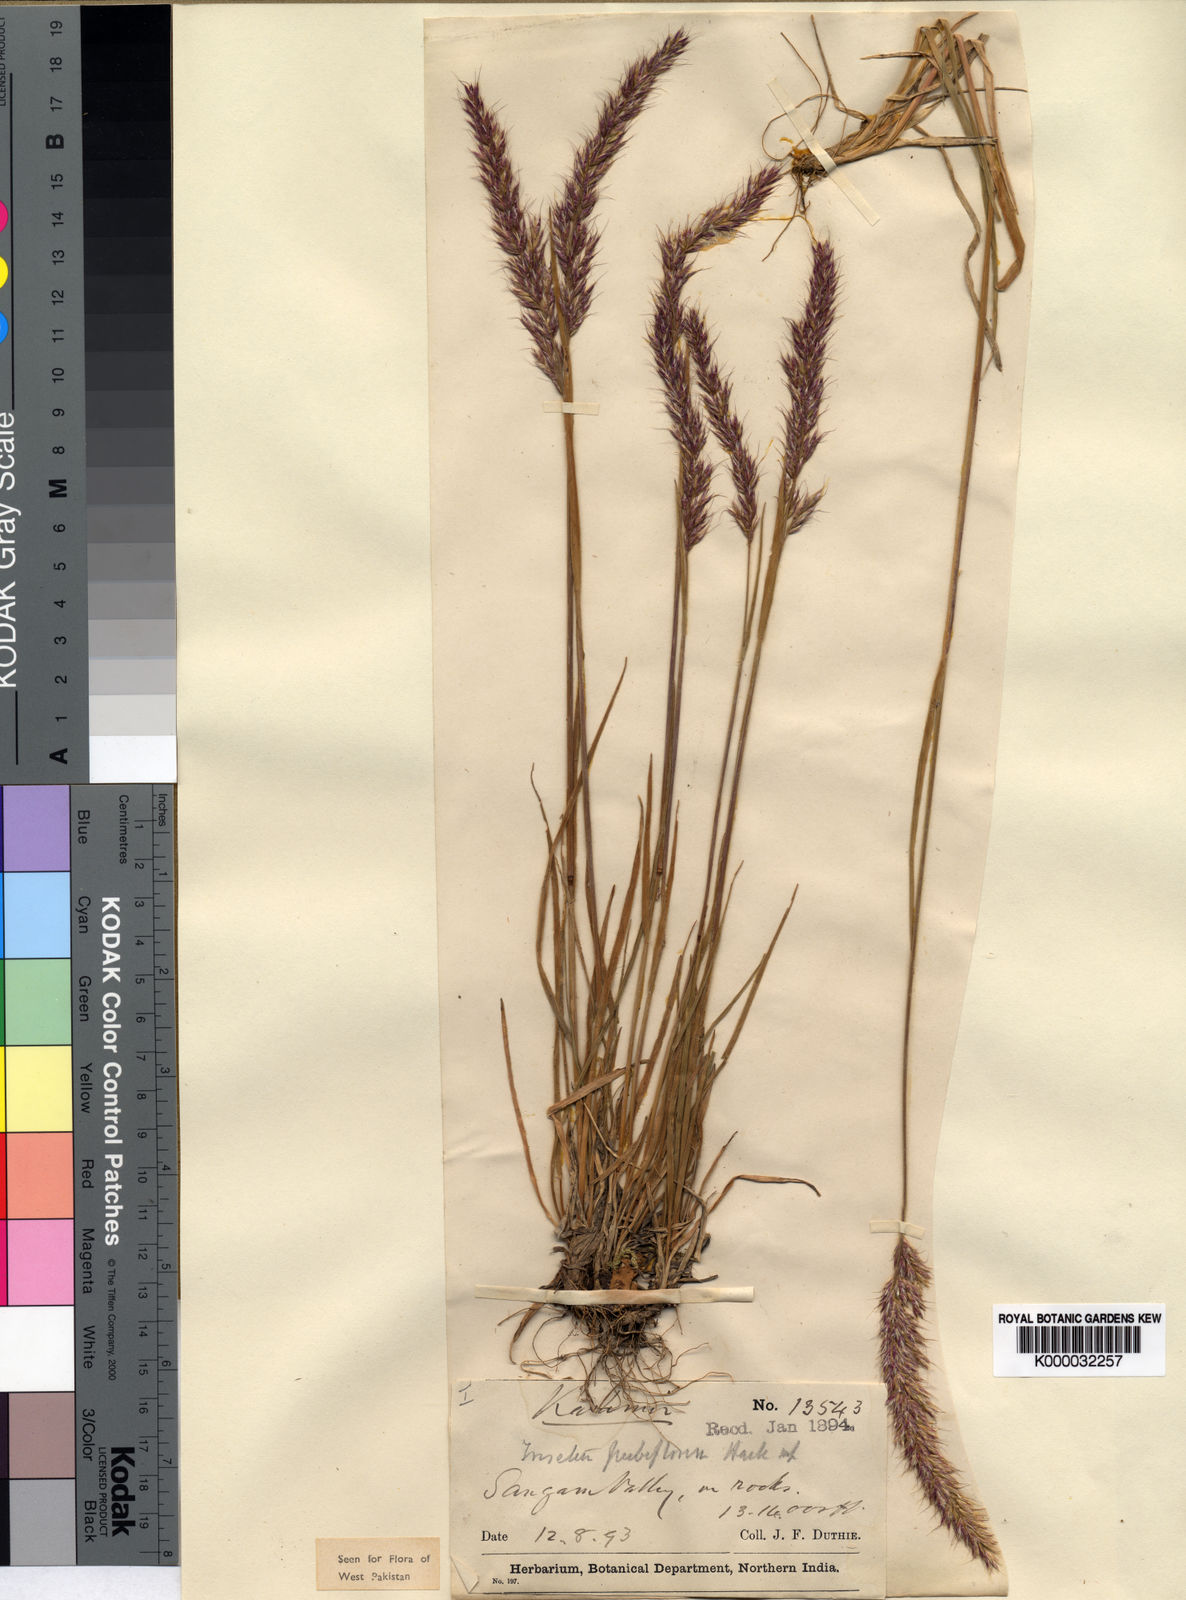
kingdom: Plantae
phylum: Tracheophyta
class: Liliopsida
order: Poales
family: Poaceae
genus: Koeleria
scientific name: Koeleria spicata
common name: Mountain trisetum
